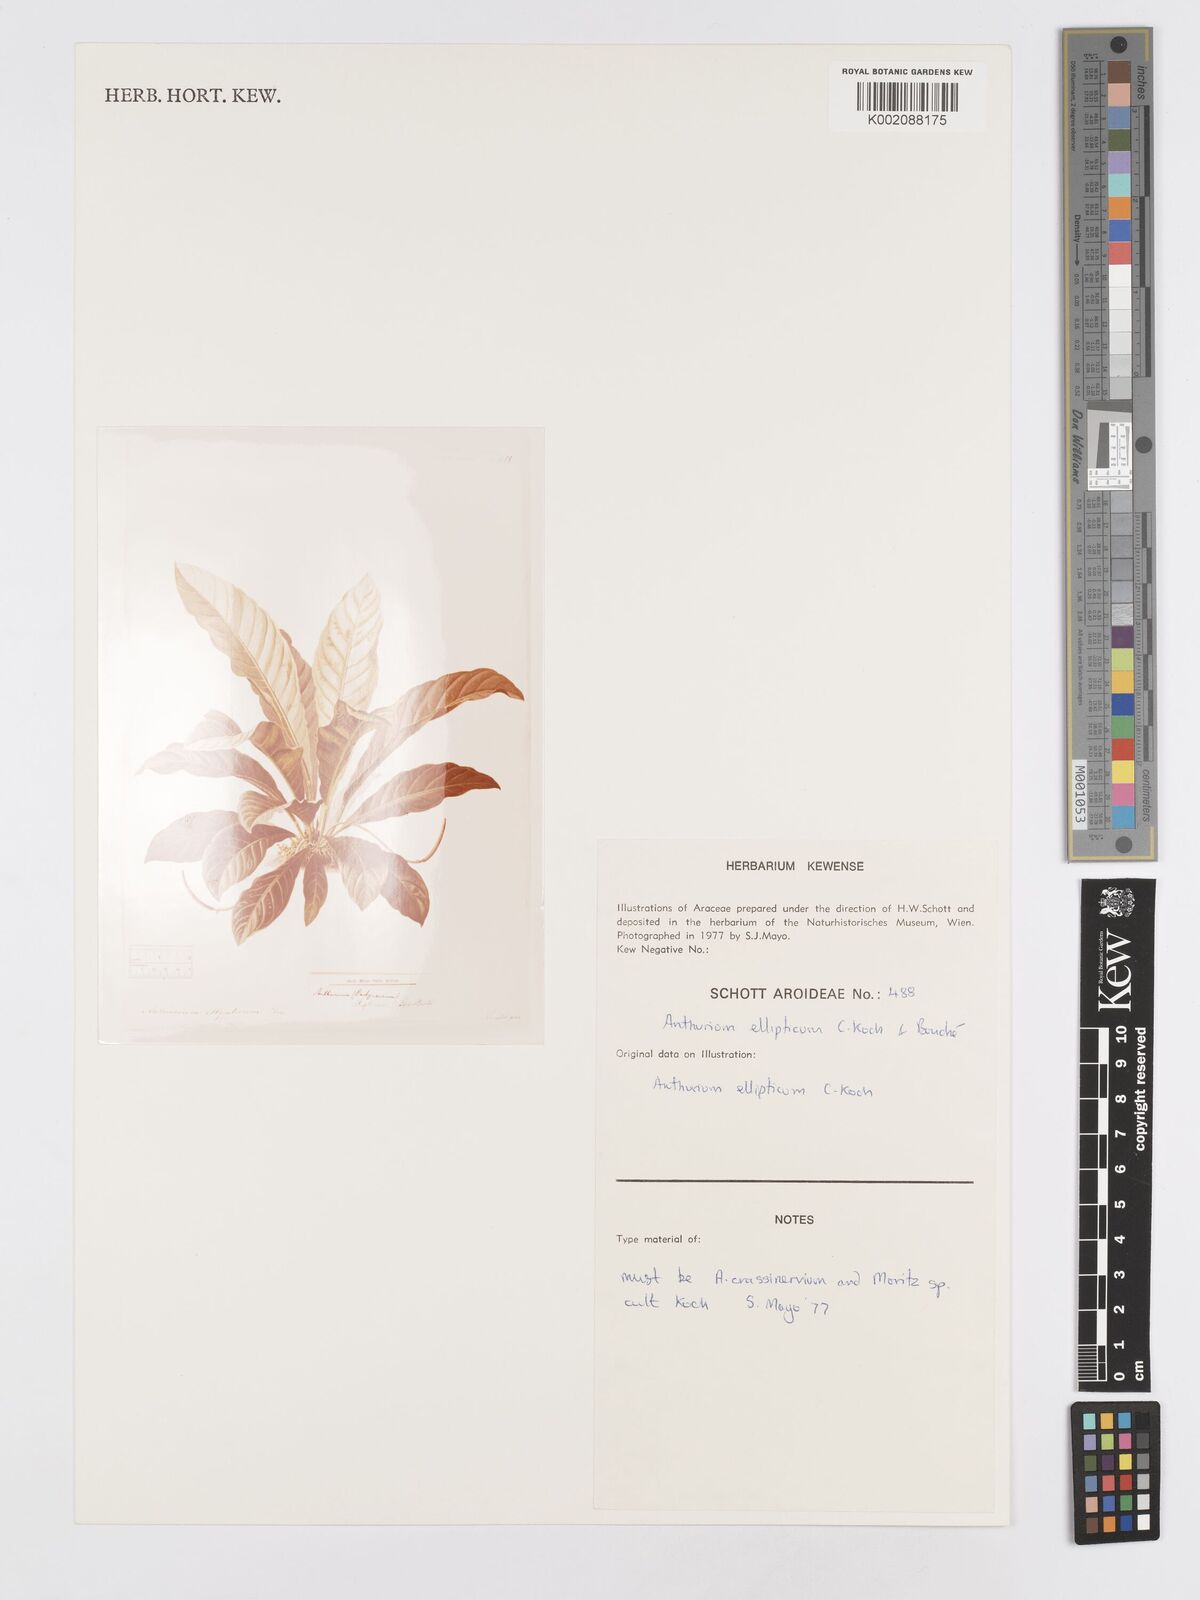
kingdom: Plantae
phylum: Tracheophyta
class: Liliopsida
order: Alismatales
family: Araceae
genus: Anthurium
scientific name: Anthurium crassinervium
